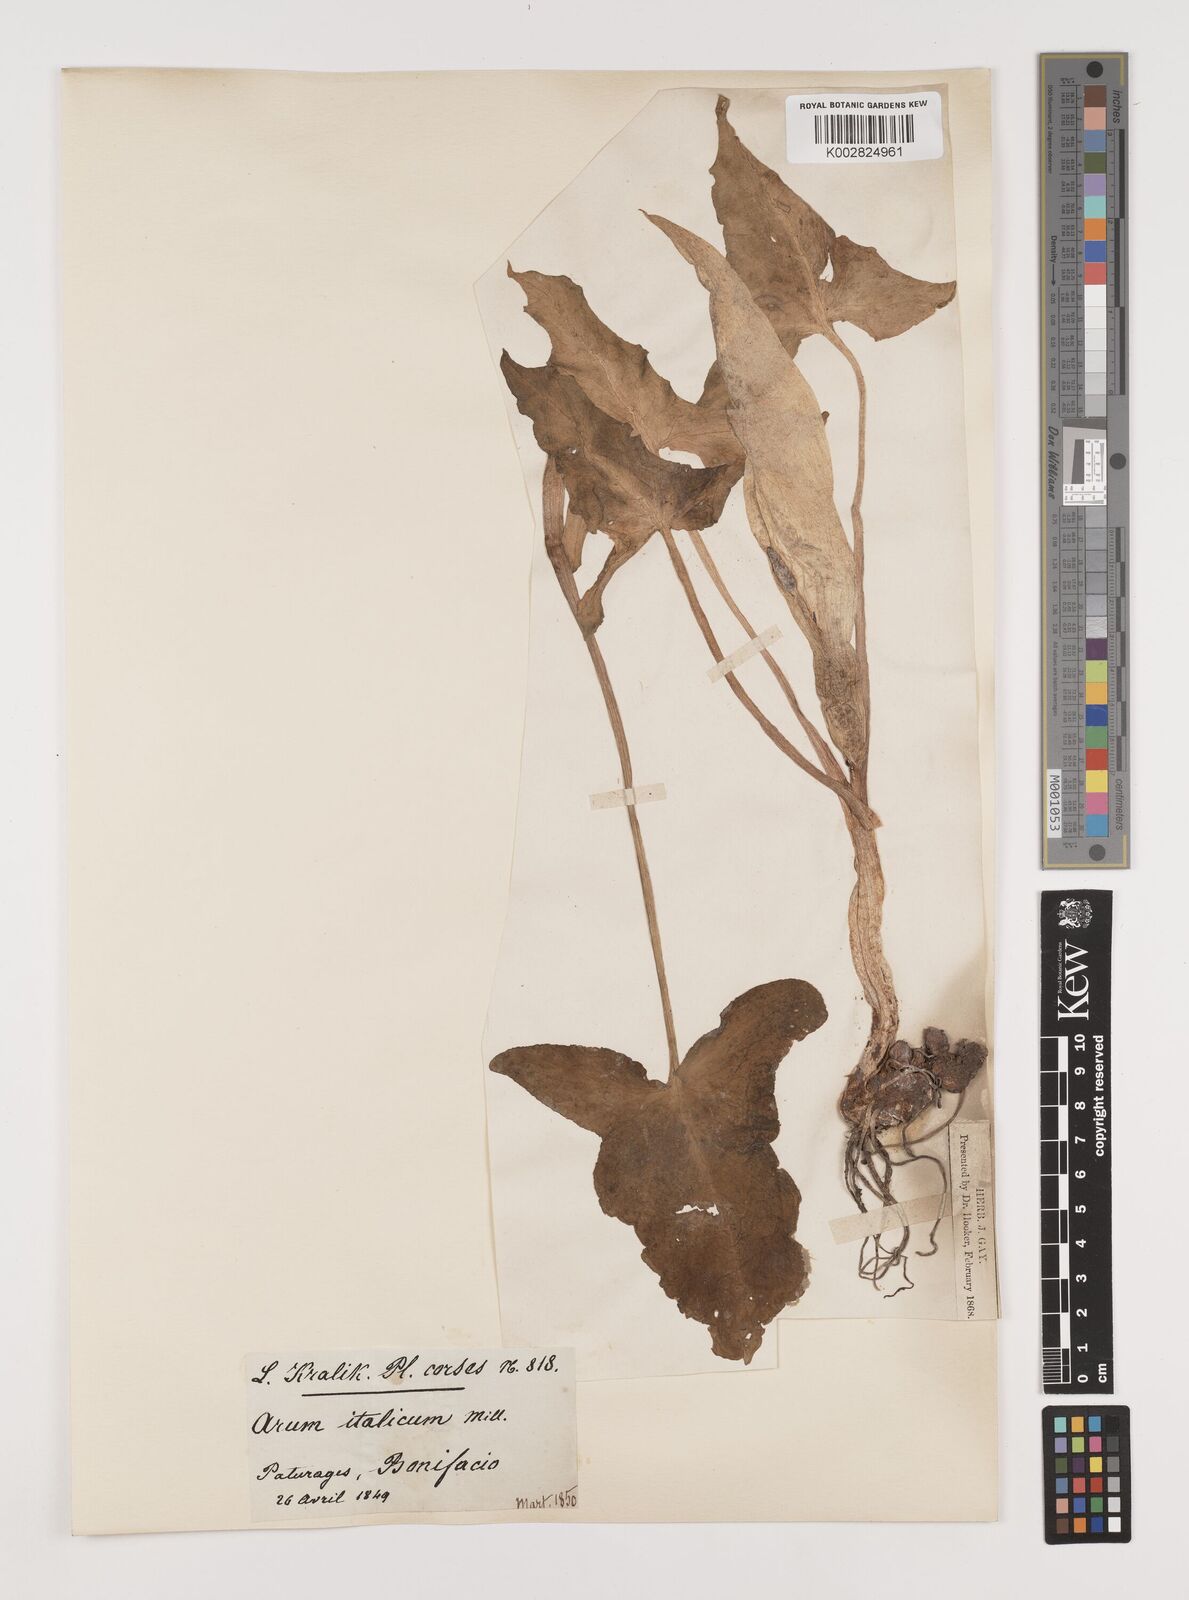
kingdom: Plantae
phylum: Tracheophyta
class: Liliopsida
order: Alismatales
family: Araceae
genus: Arum
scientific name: Arum italicum
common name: Italian lords-and-ladies
